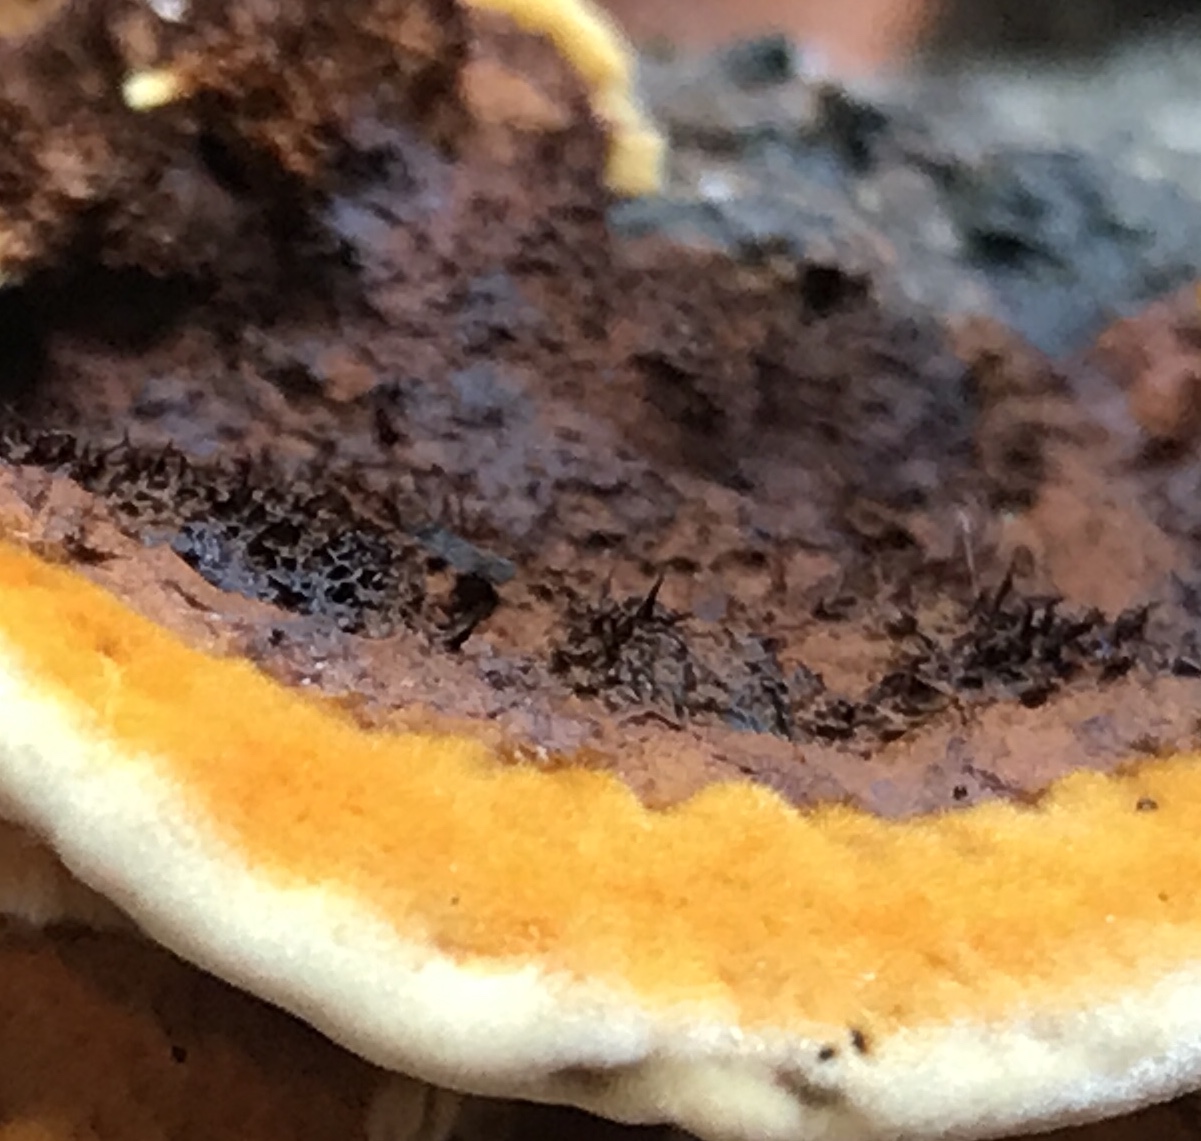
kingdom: Fungi
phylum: Basidiomycota
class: Agaricomycetes
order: Gloeophyllales
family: Gloeophyllaceae
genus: Gloeophyllum
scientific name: Gloeophyllum sepiarium
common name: fyrre-korkhat
